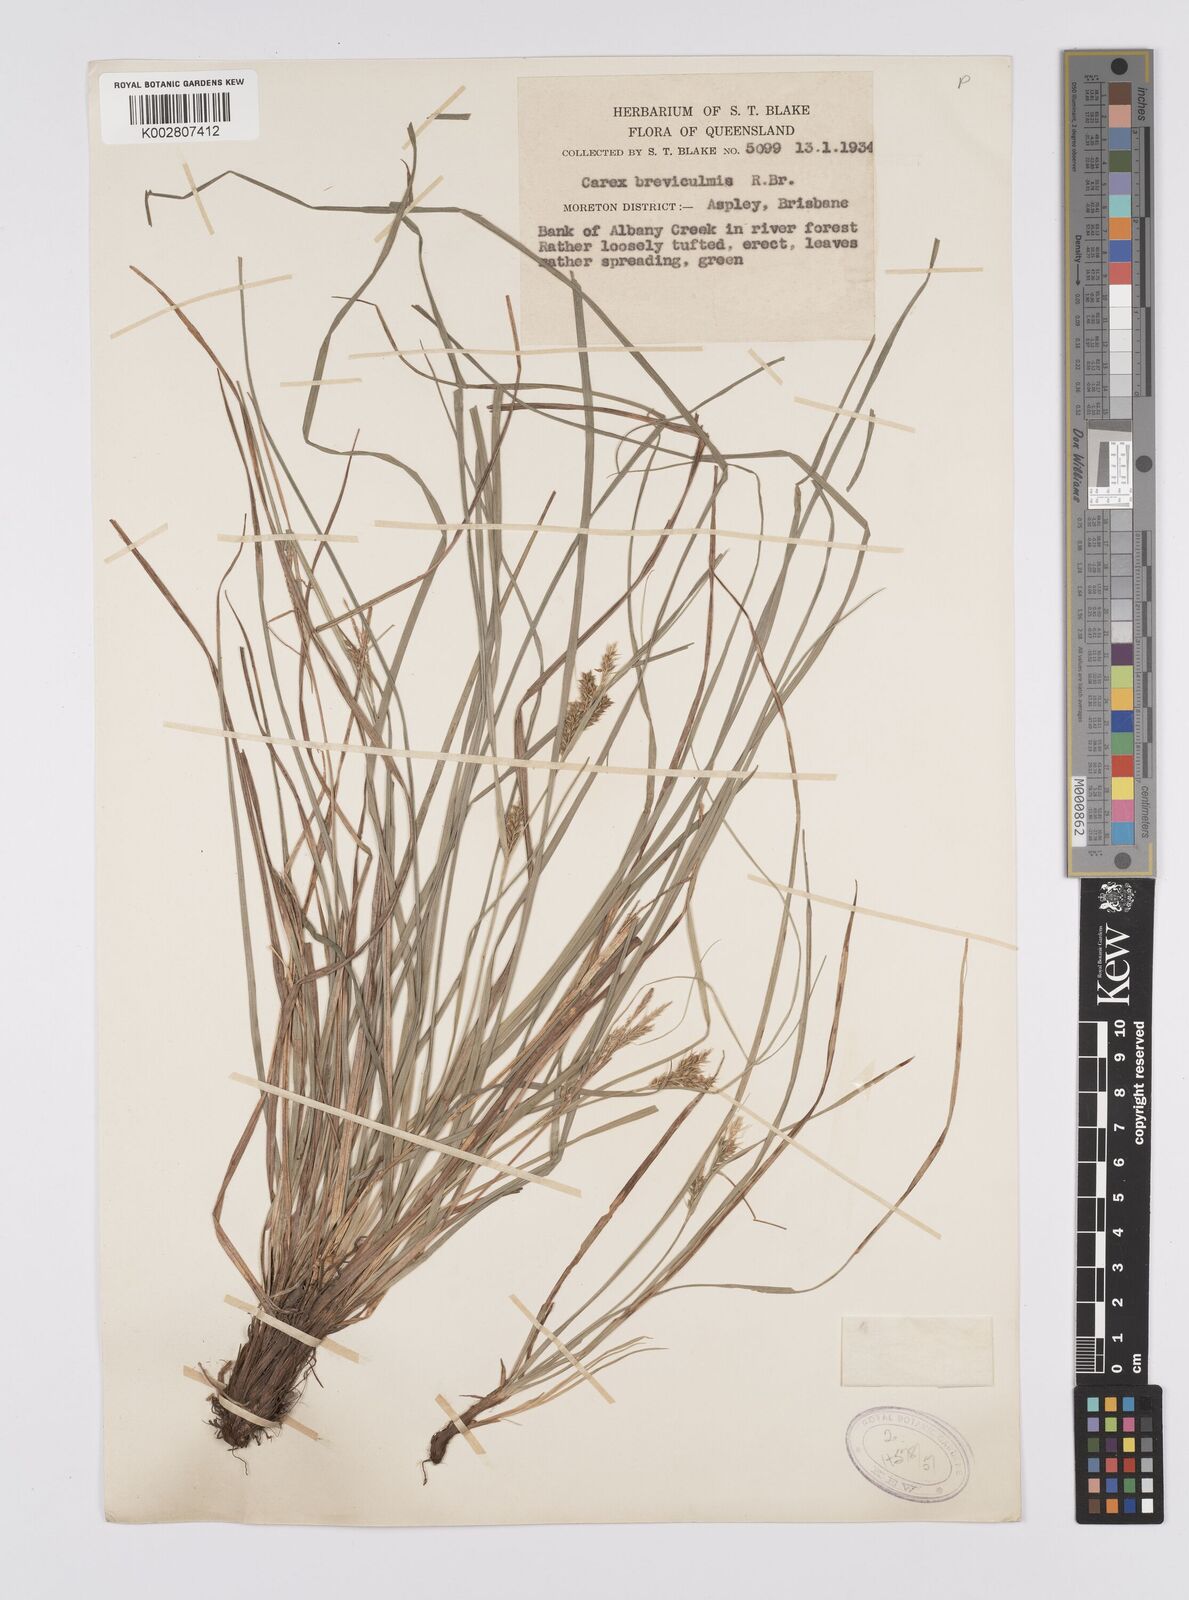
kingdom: Plantae
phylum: Tracheophyta
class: Liliopsida
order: Poales
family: Cyperaceae
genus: Carex
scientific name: Carex breviculmis
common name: Asian shortstem sedge
